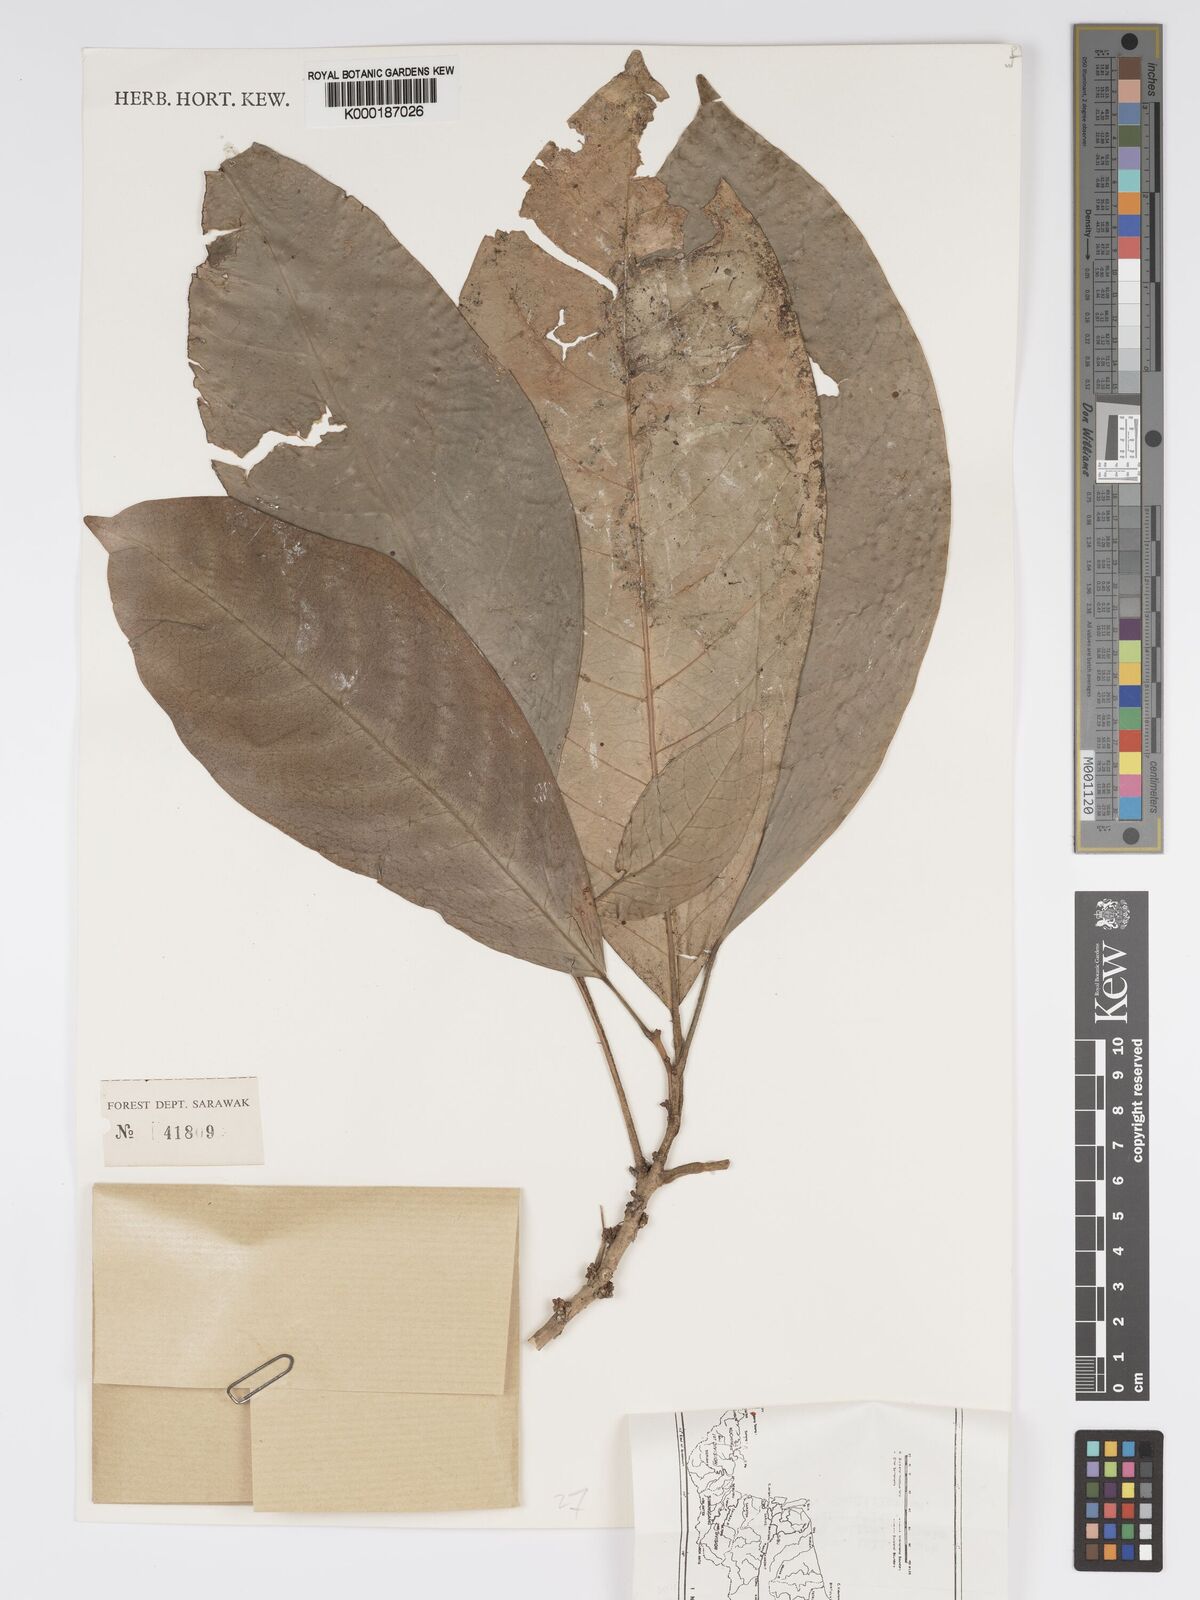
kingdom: Plantae
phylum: Tracheophyta
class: Magnoliopsida
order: Malpighiales
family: Phyllanthaceae
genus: Actephila
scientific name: Actephila
